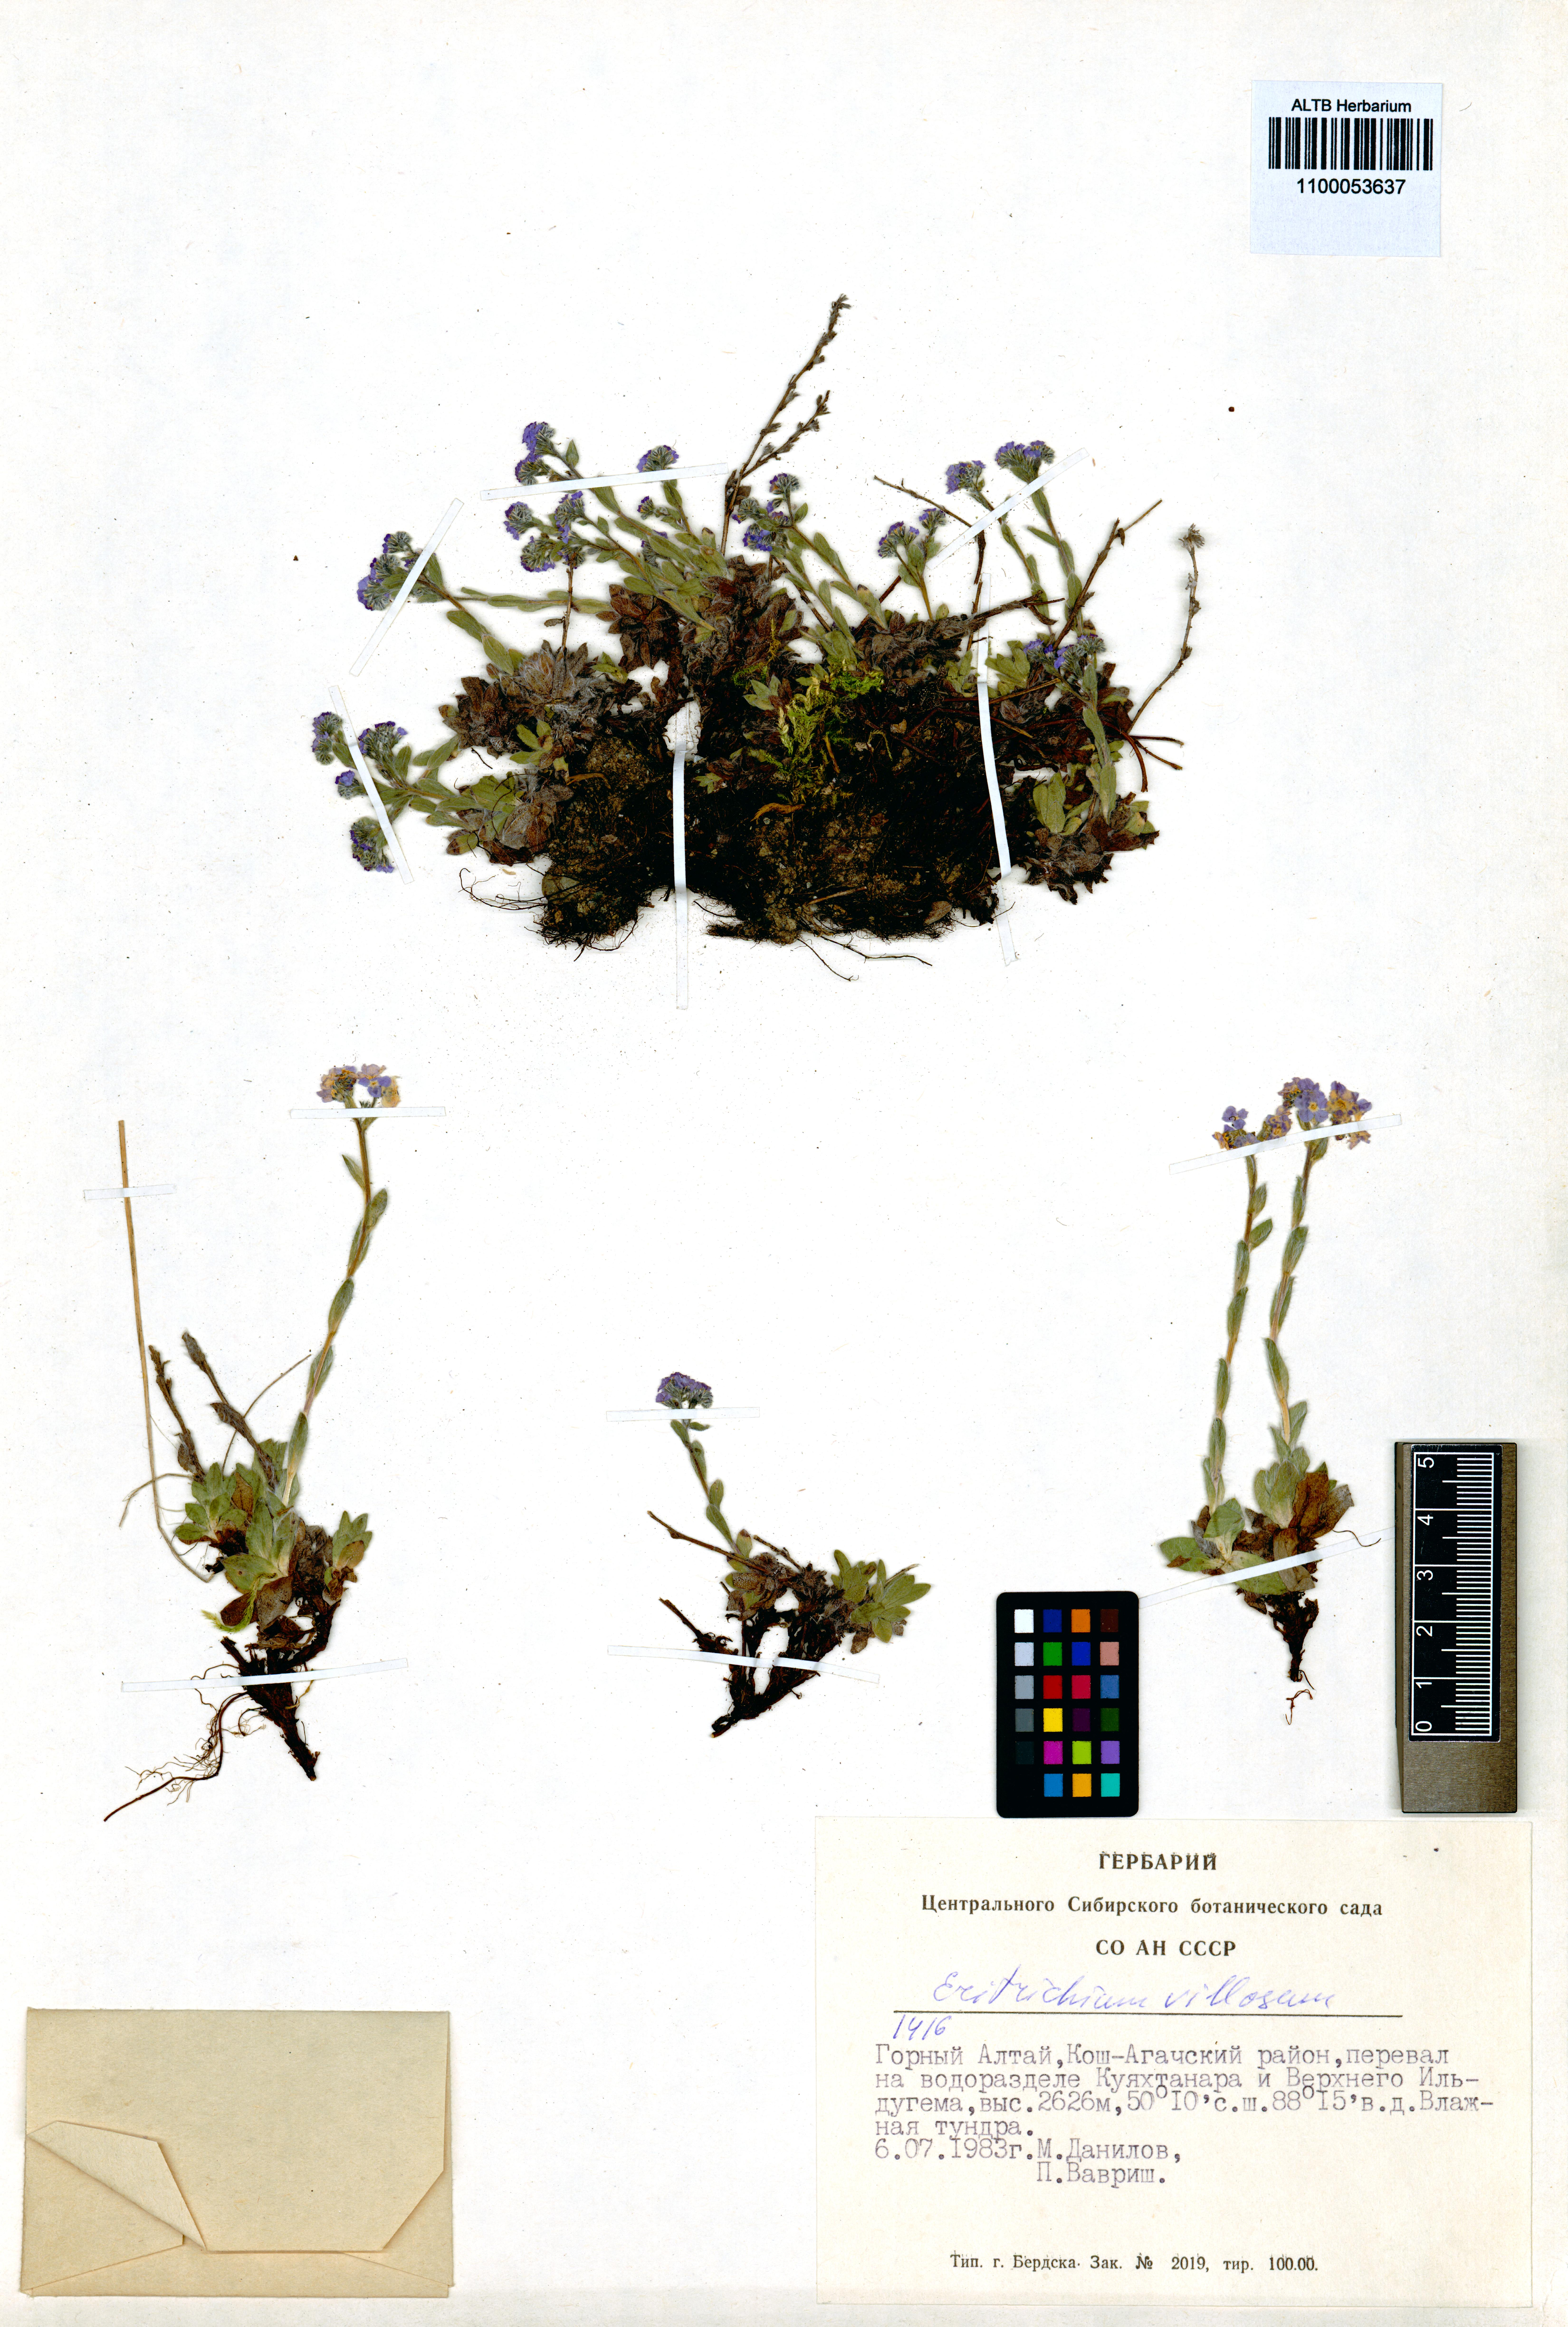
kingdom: Plantae
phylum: Tracheophyta
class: Magnoliopsida
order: Boraginales
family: Boraginaceae
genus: Eritrichium
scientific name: Eritrichium villosum
